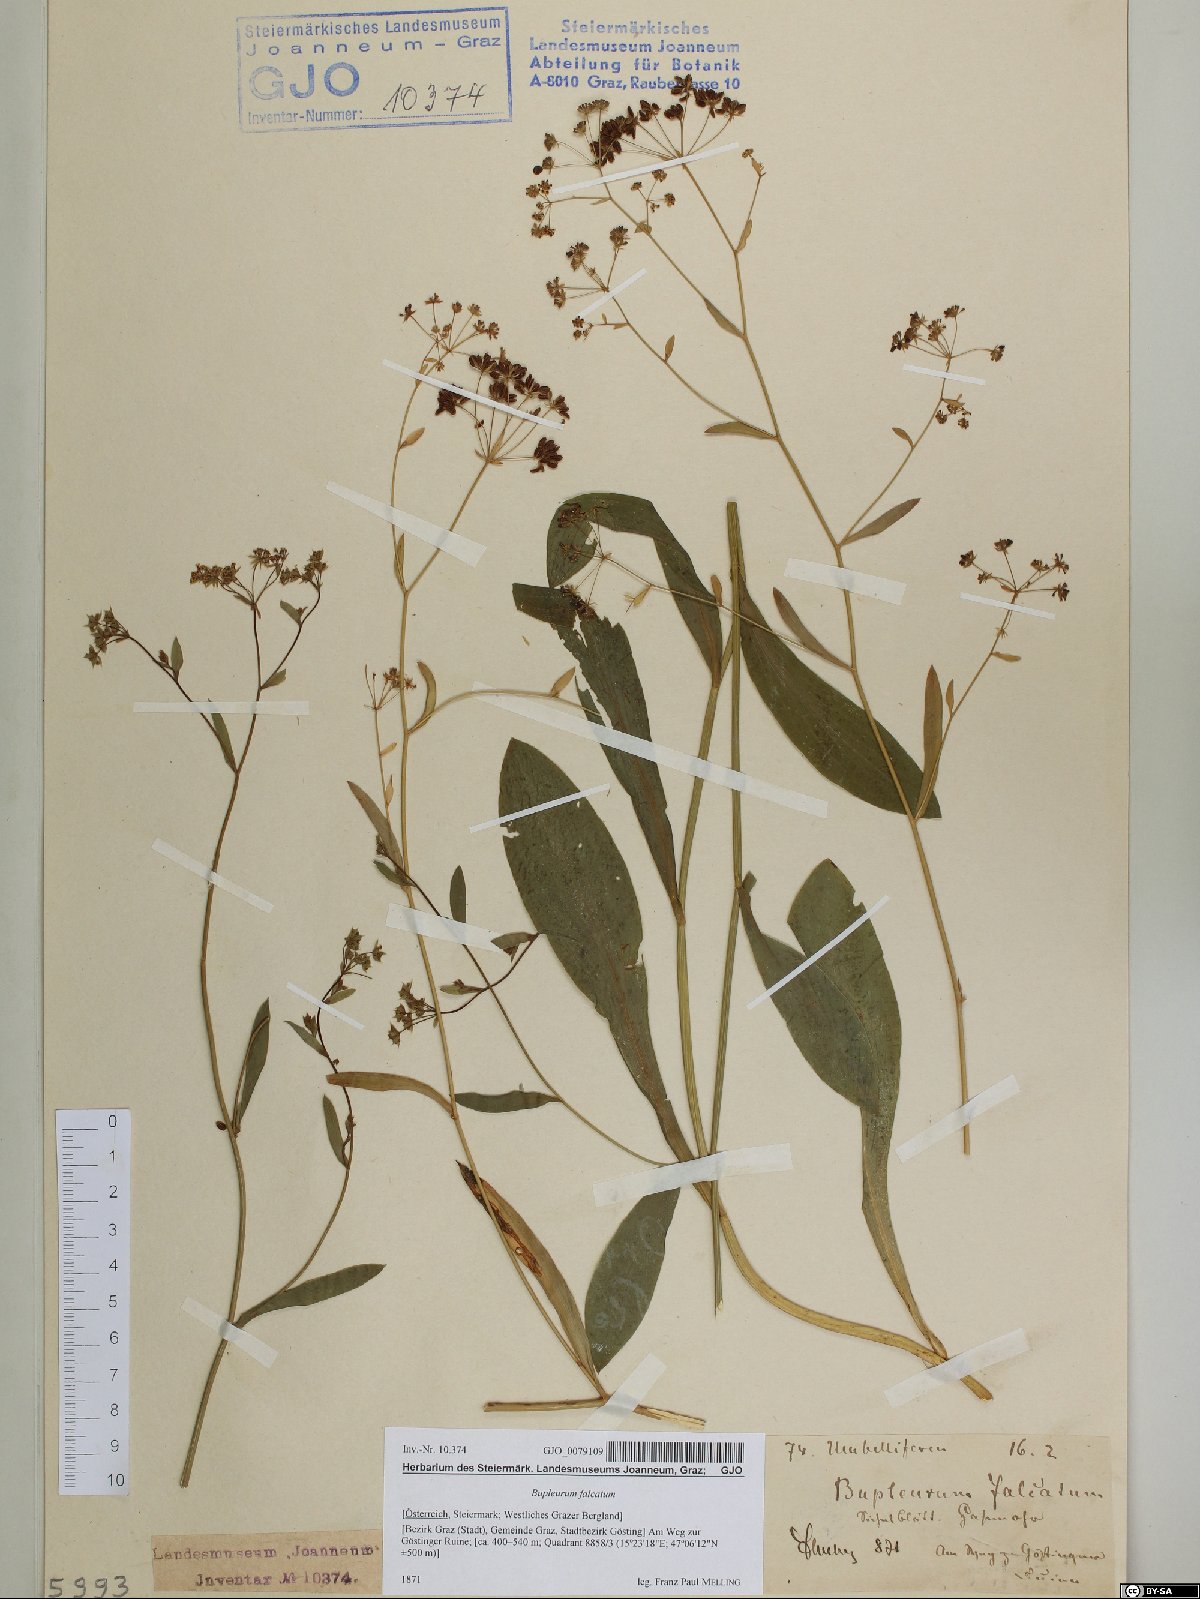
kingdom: Plantae
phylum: Tracheophyta
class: Magnoliopsida
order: Apiales
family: Apiaceae
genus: Bupleurum
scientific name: Bupleurum falcatum
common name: Sickle-leaved hare's-ear
